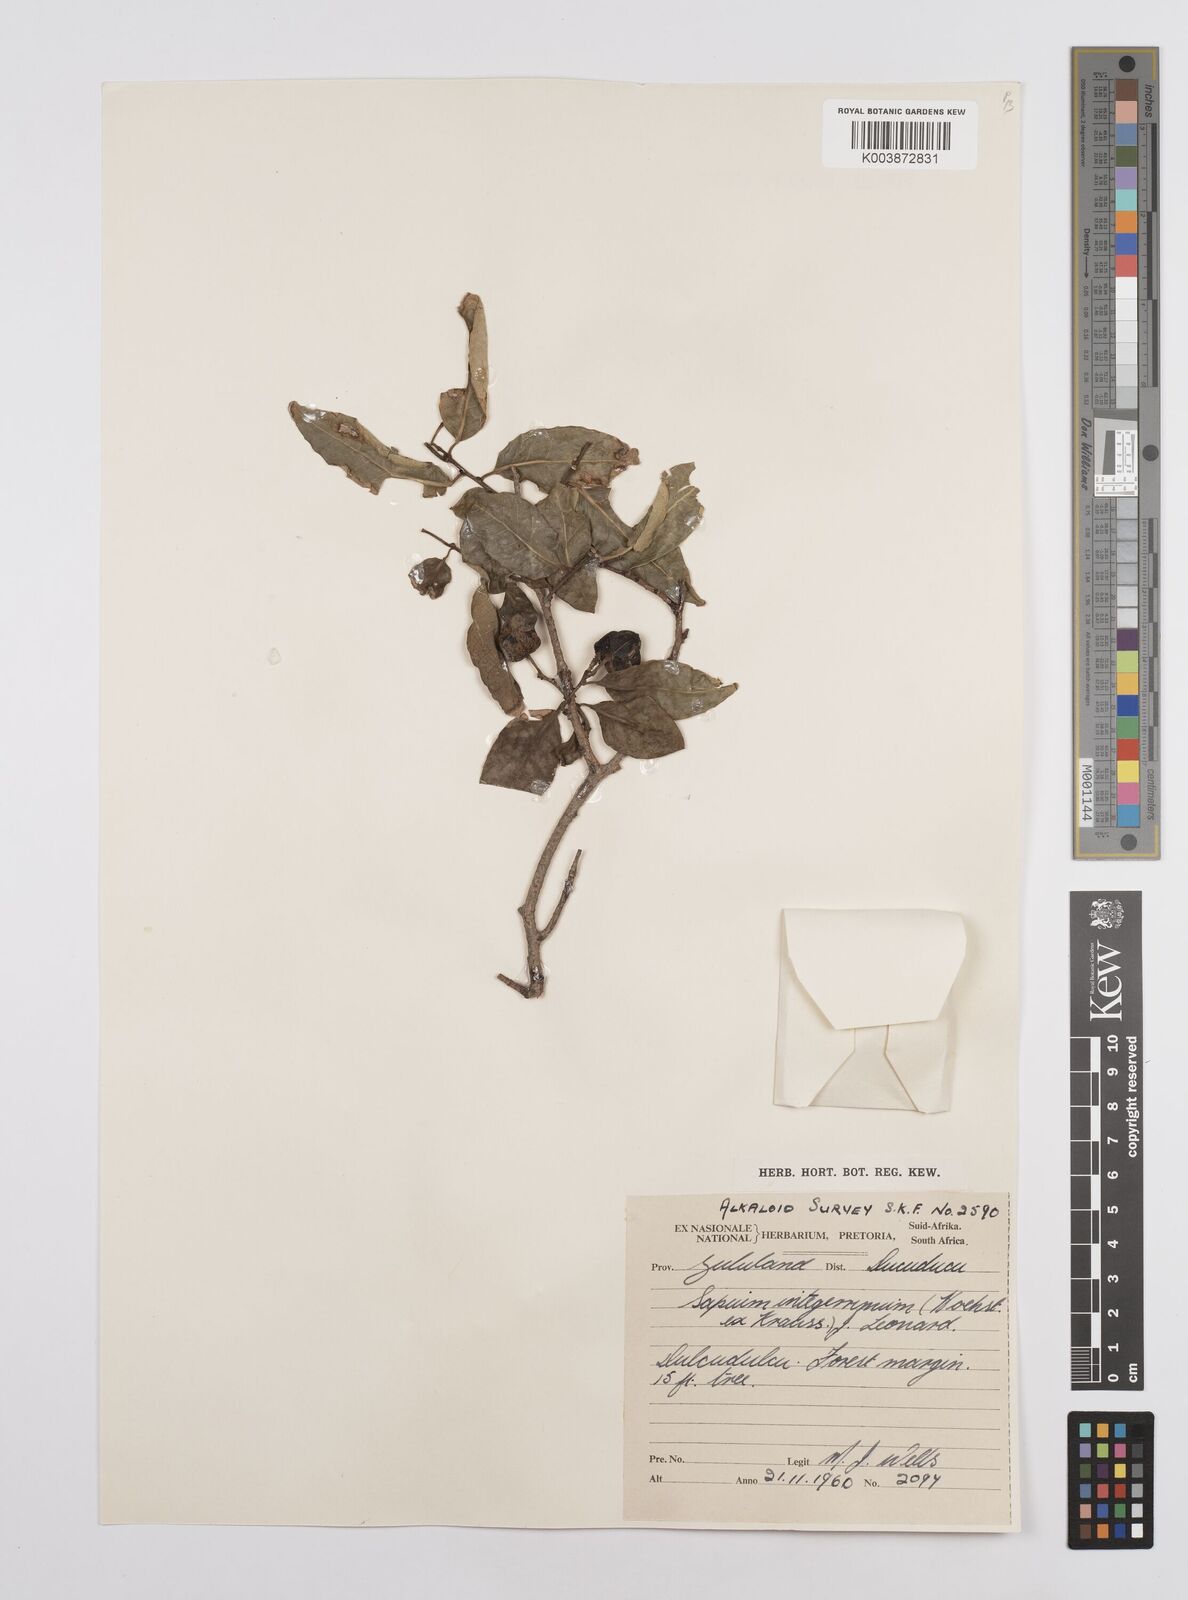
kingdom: Plantae
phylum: Tracheophyta
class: Magnoliopsida
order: Malpighiales
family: Euphorbiaceae
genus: Sclerocroton
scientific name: Sclerocroton integerrimus
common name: Duiker berry
